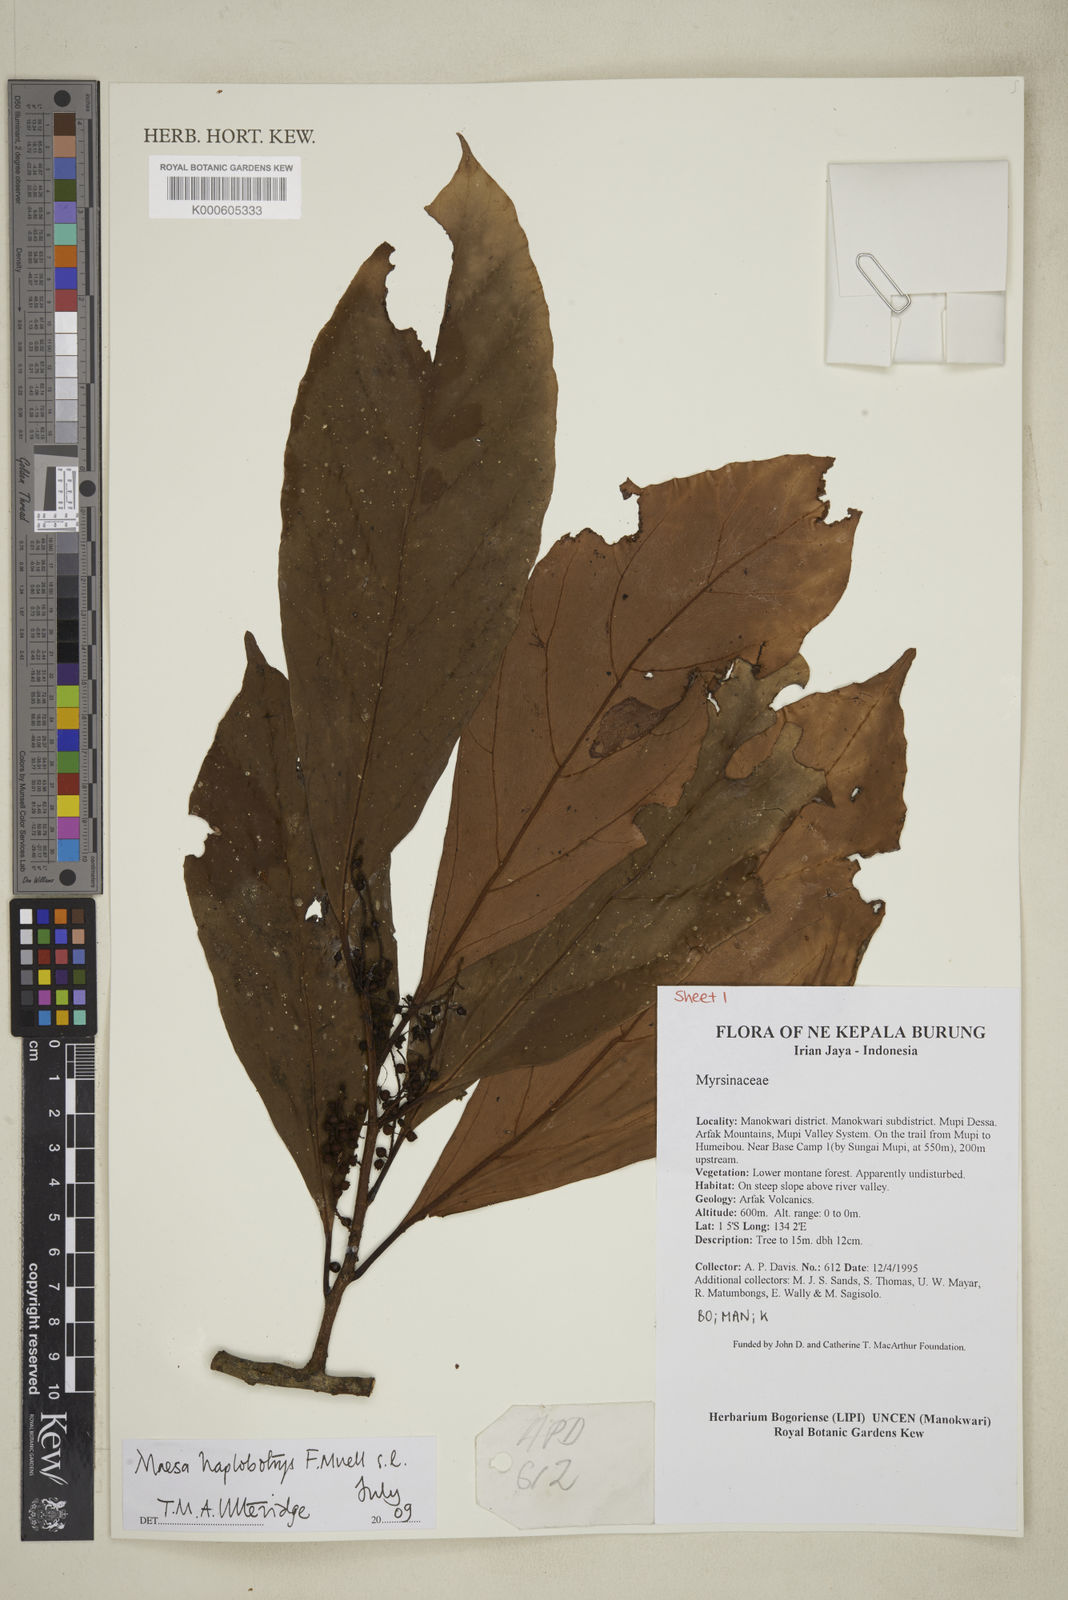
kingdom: Plantae
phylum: Tracheophyta
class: Magnoliopsida
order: Ericales
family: Primulaceae
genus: Maesa
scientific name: Maesa haplobotrys
